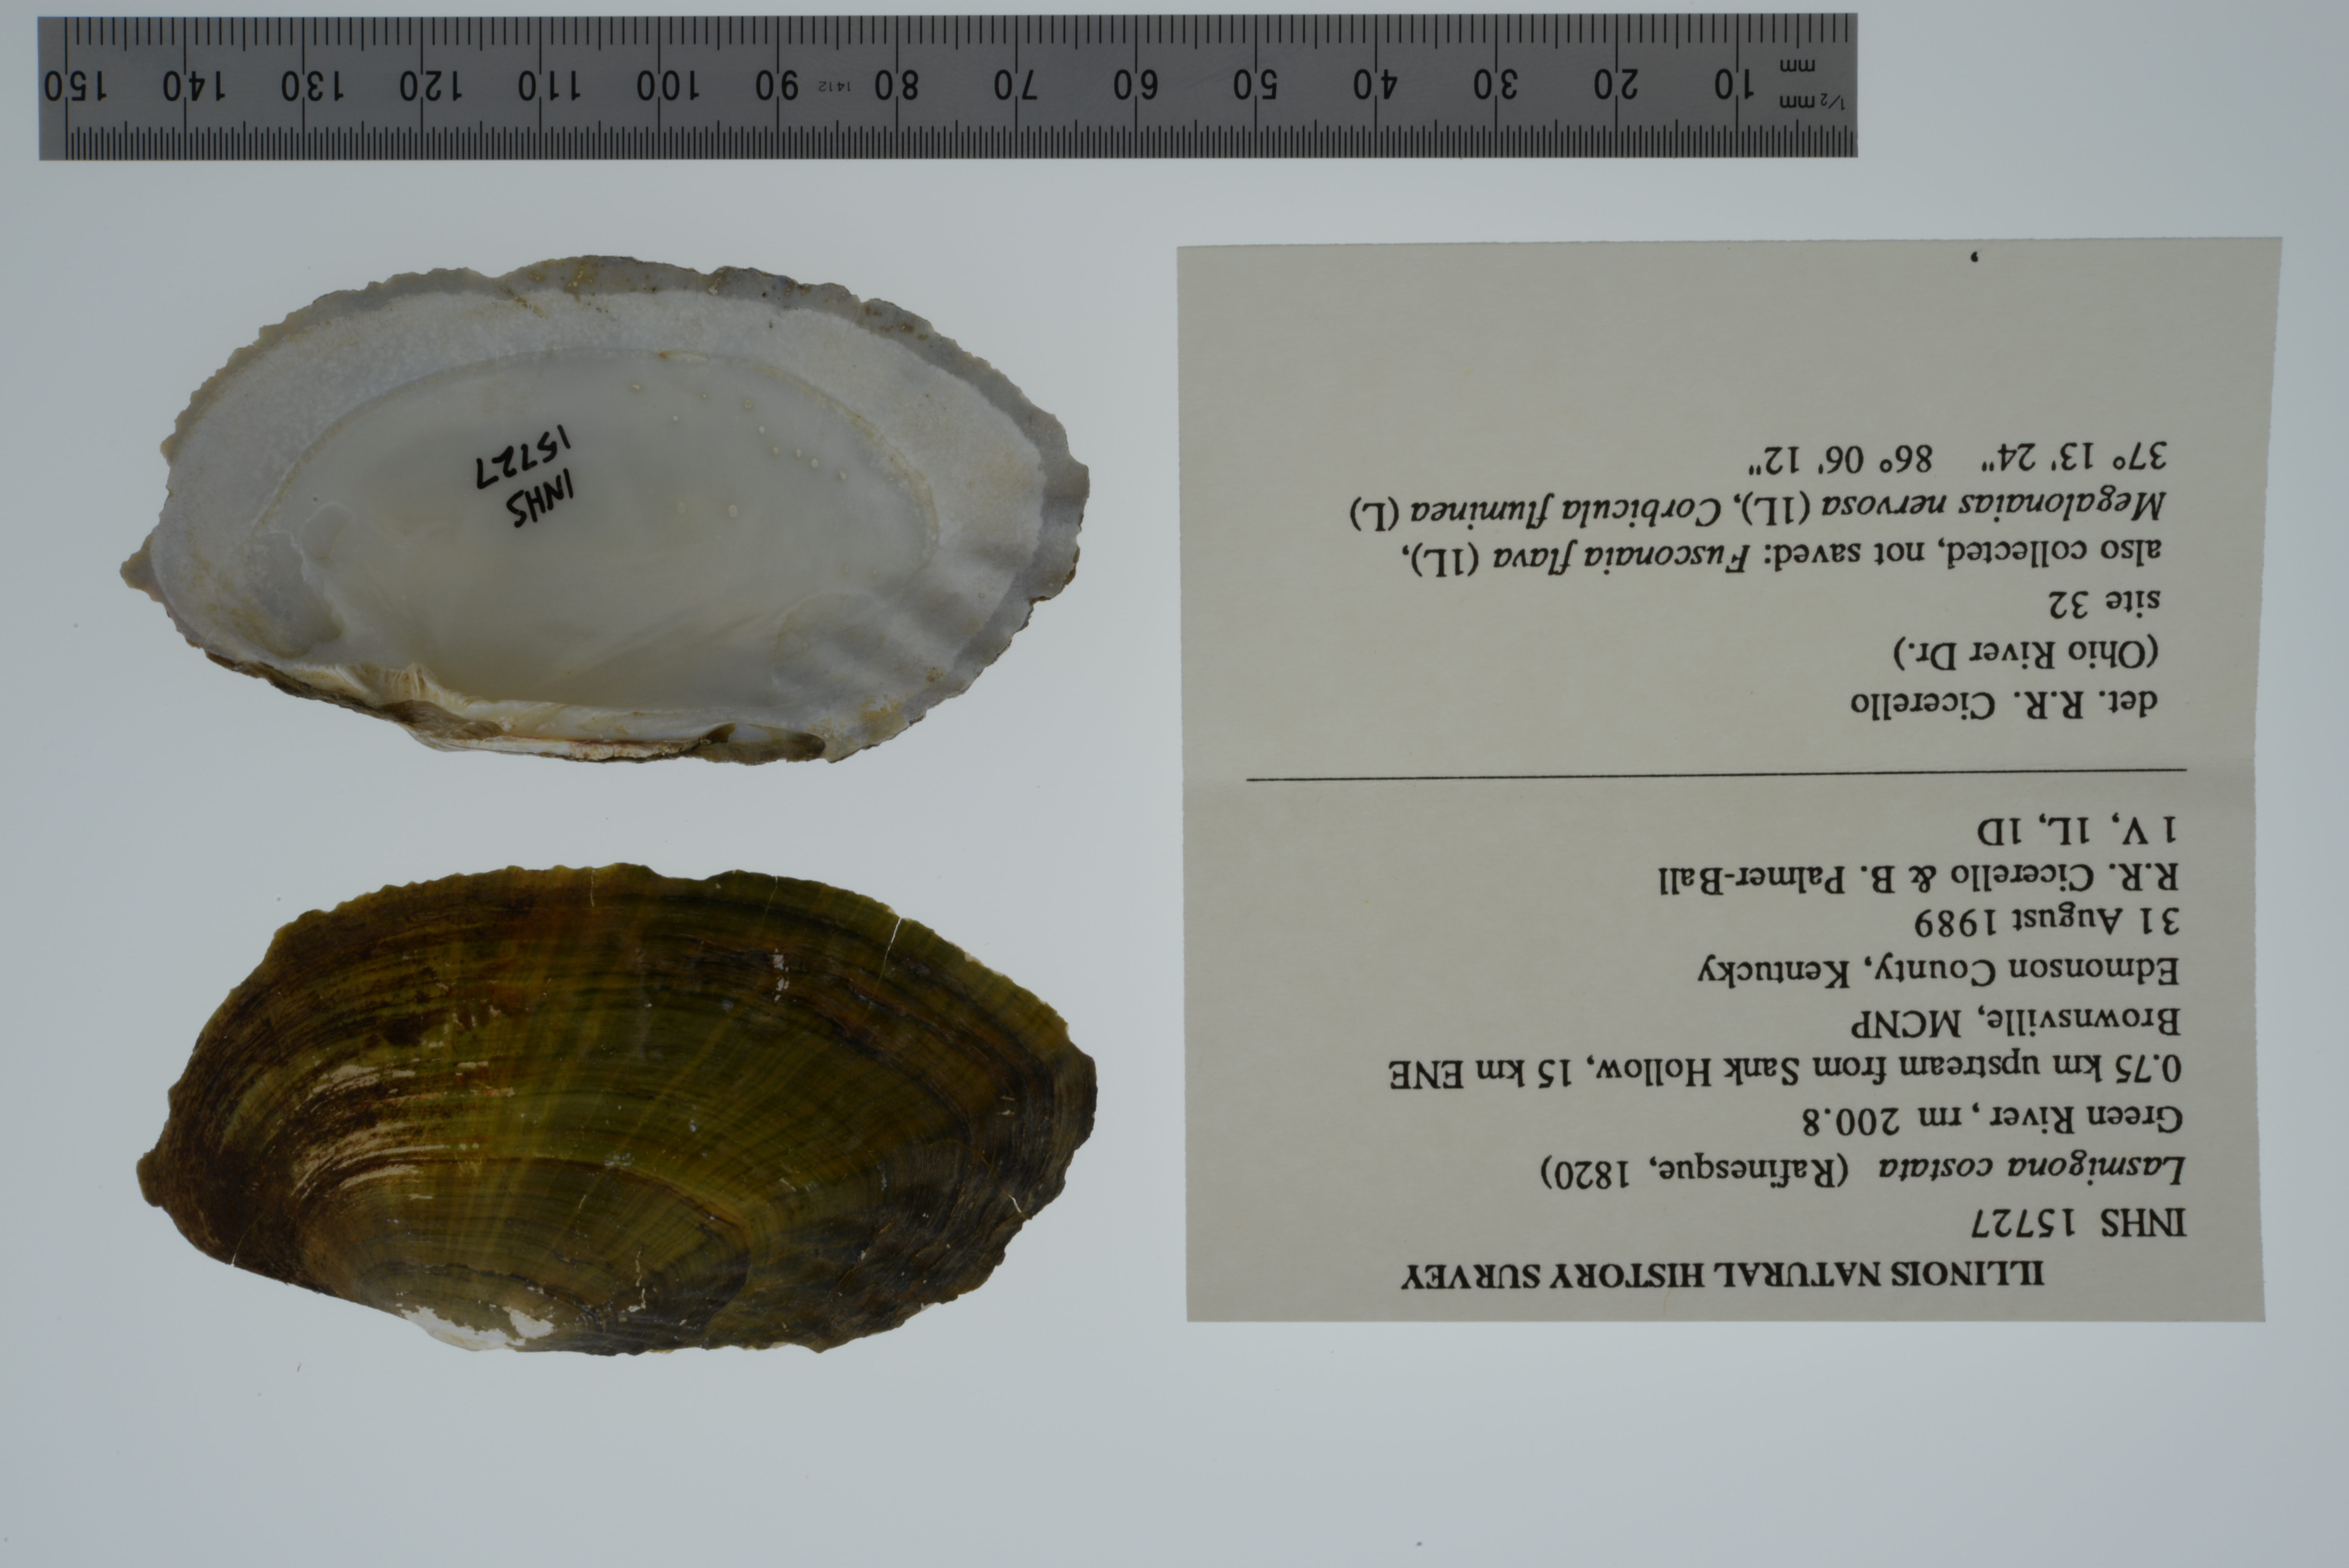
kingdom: Animalia
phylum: Mollusca
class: Bivalvia
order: Unionida
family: Unionidae
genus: Lasmigona
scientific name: Lasmigona costata
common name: Flutedshell
